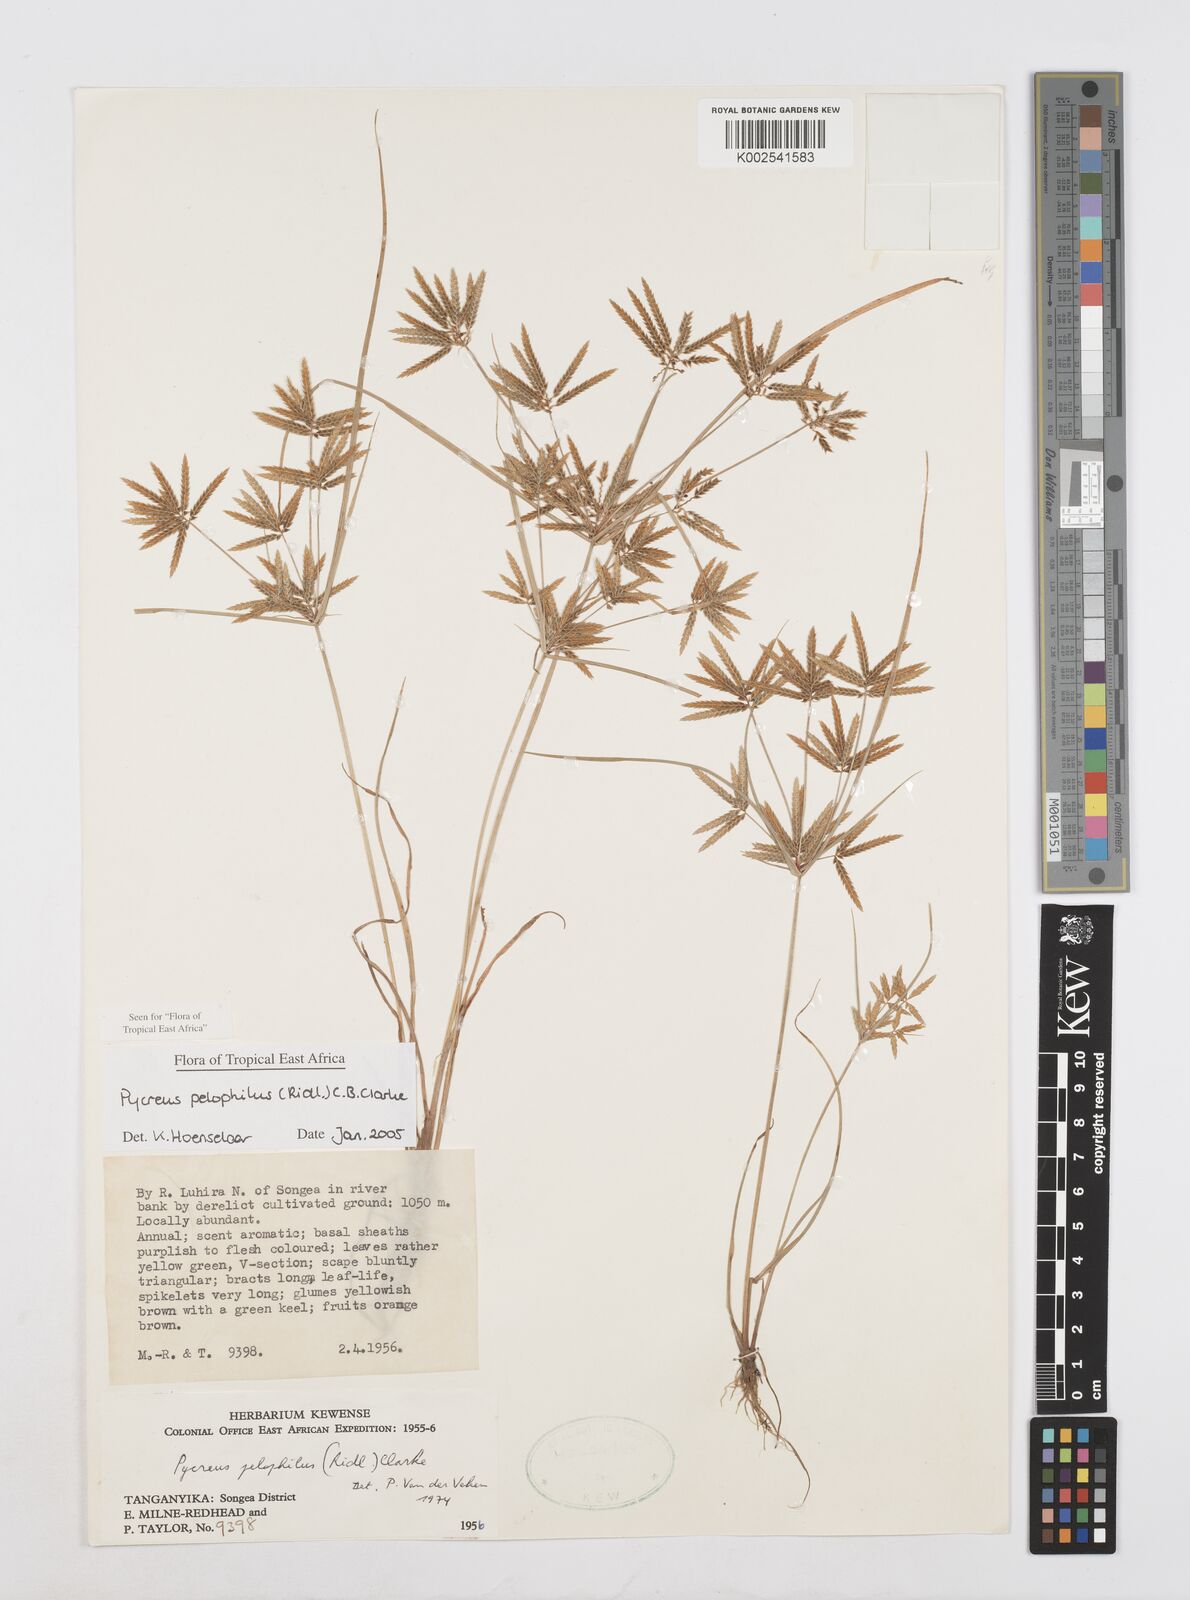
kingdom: Plantae
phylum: Tracheophyta
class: Liliopsida
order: Poales
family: Cyperaceae
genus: Cyperus
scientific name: Cyperus pelophilus
